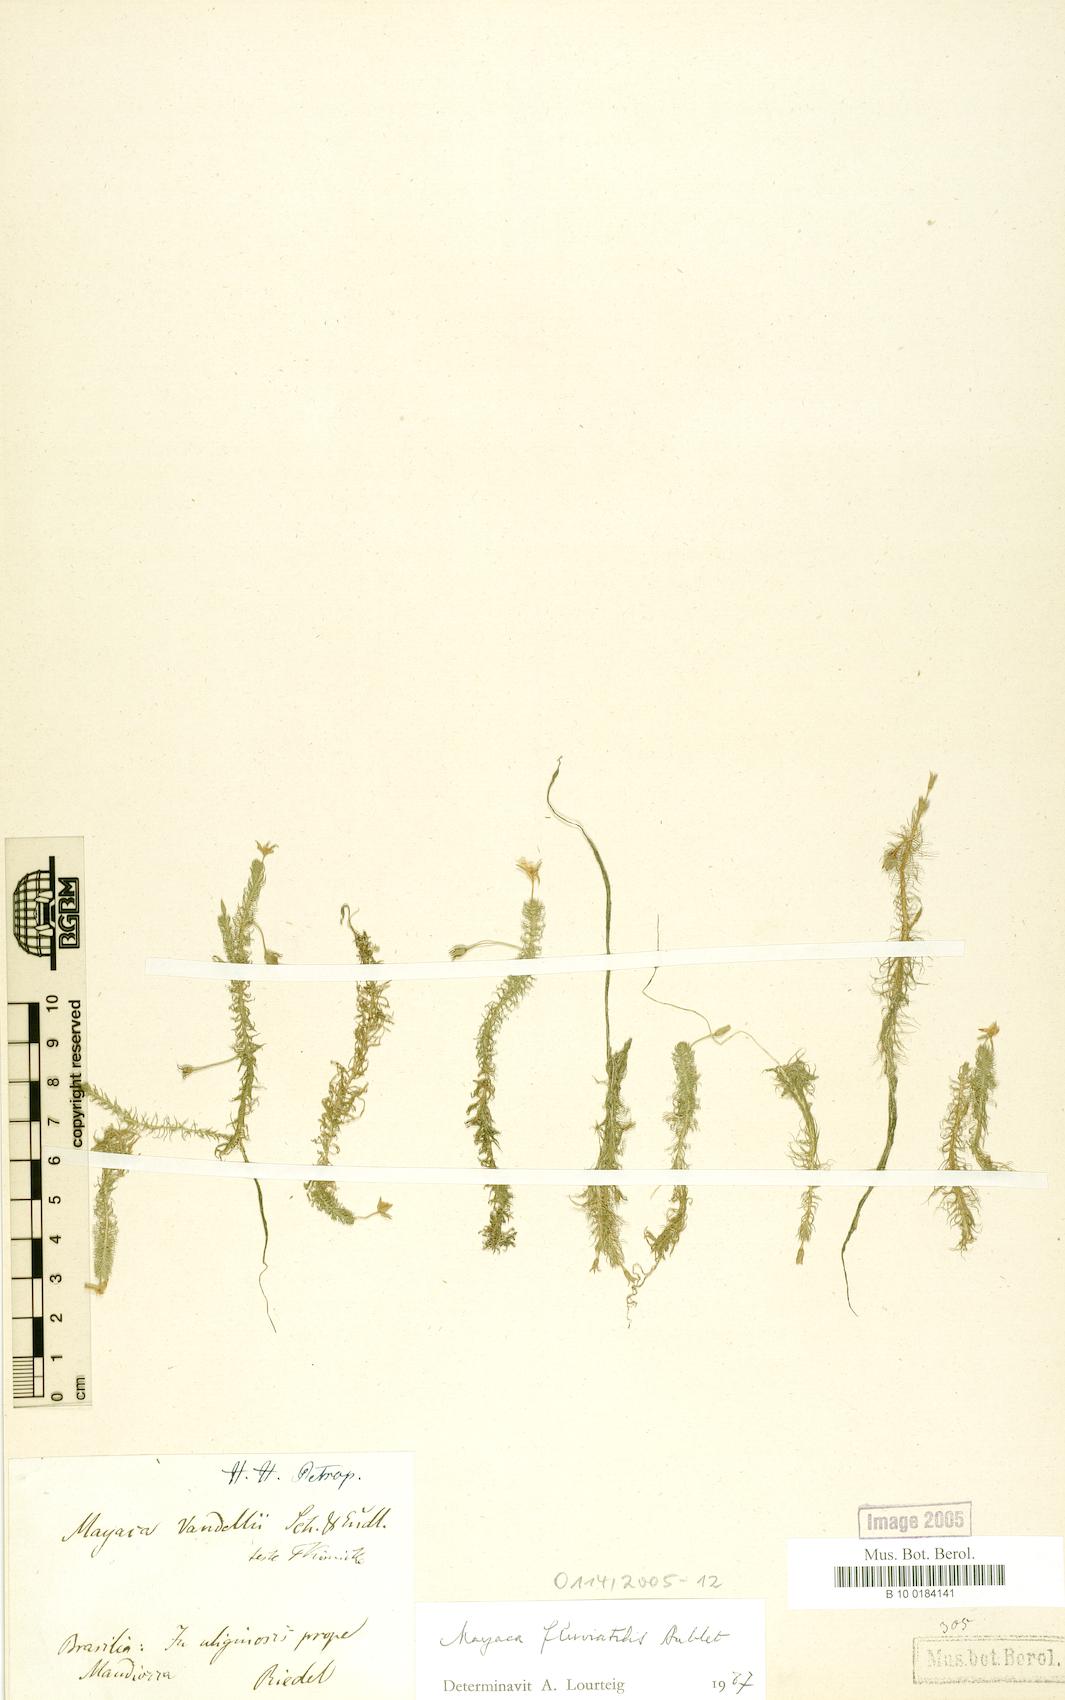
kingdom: Plantae
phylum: Tracheophyta
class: Liliopsida
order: Poales
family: Mayacaceae
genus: Mayaca
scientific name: Mayaca fluviatilis
